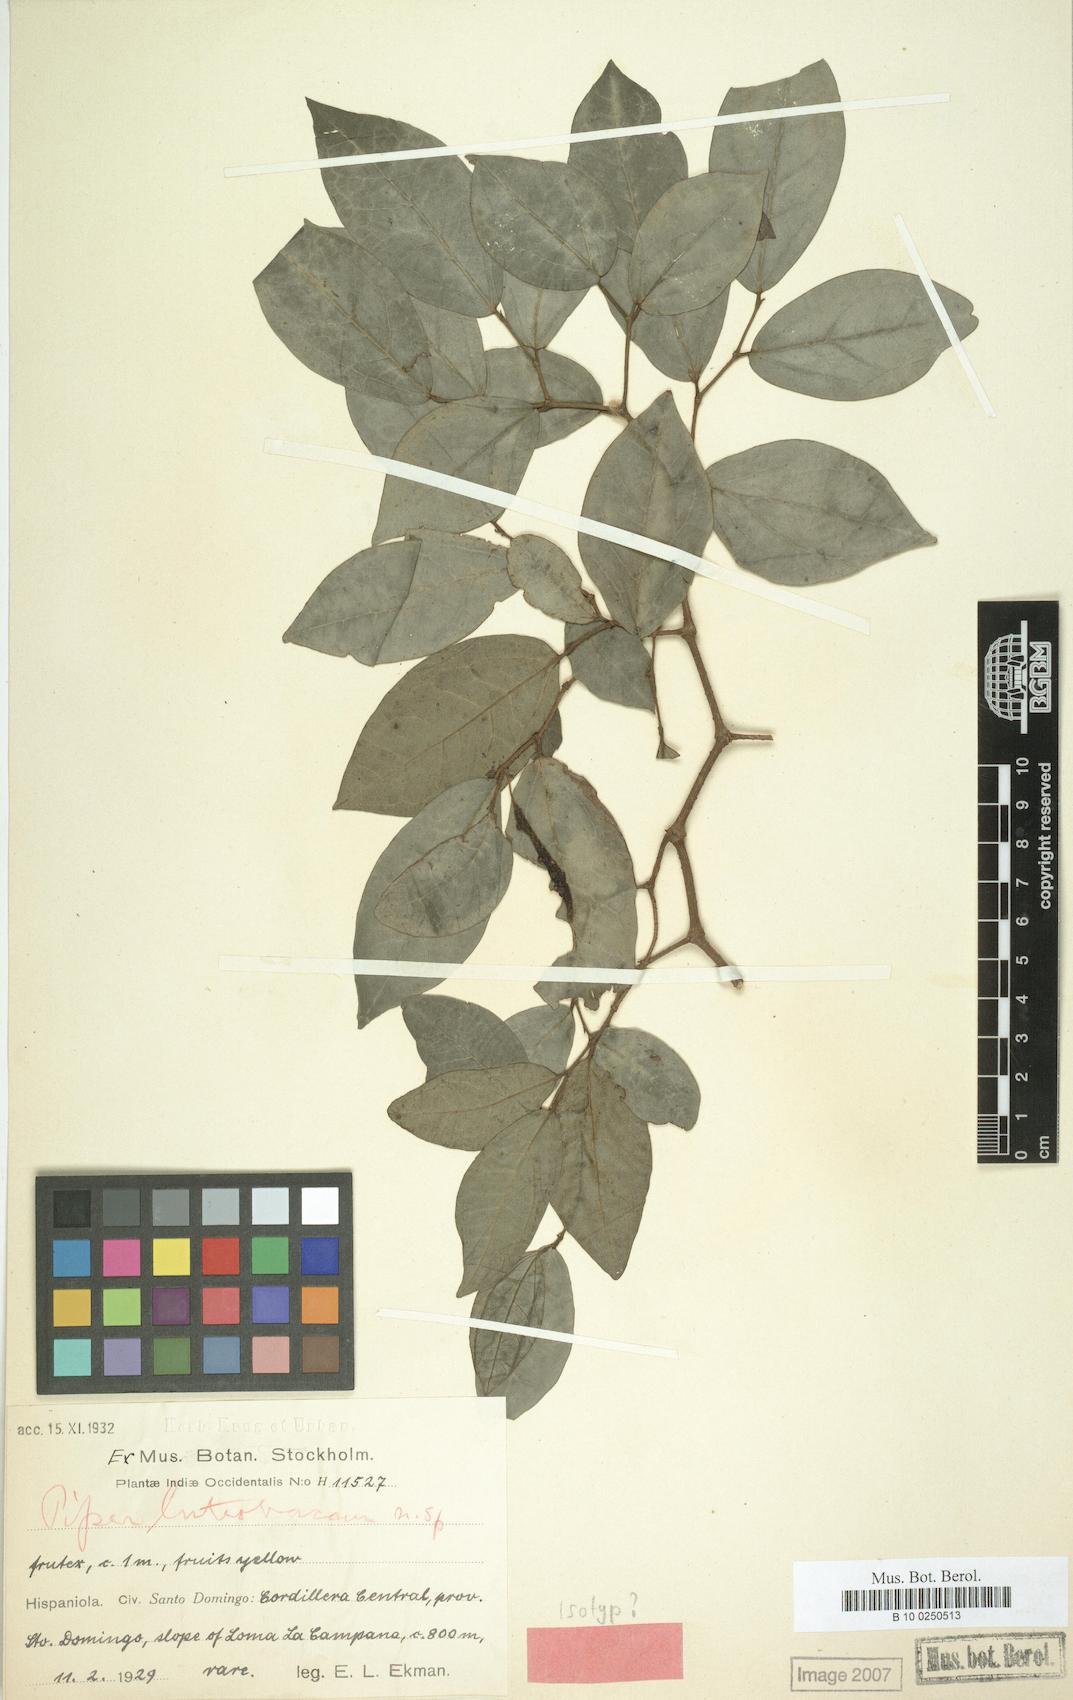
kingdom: Plantae
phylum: Tracheophyta
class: Magnoliopsida
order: Piperales
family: Piperaceae
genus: Piper
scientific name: Piper depressibaccum
